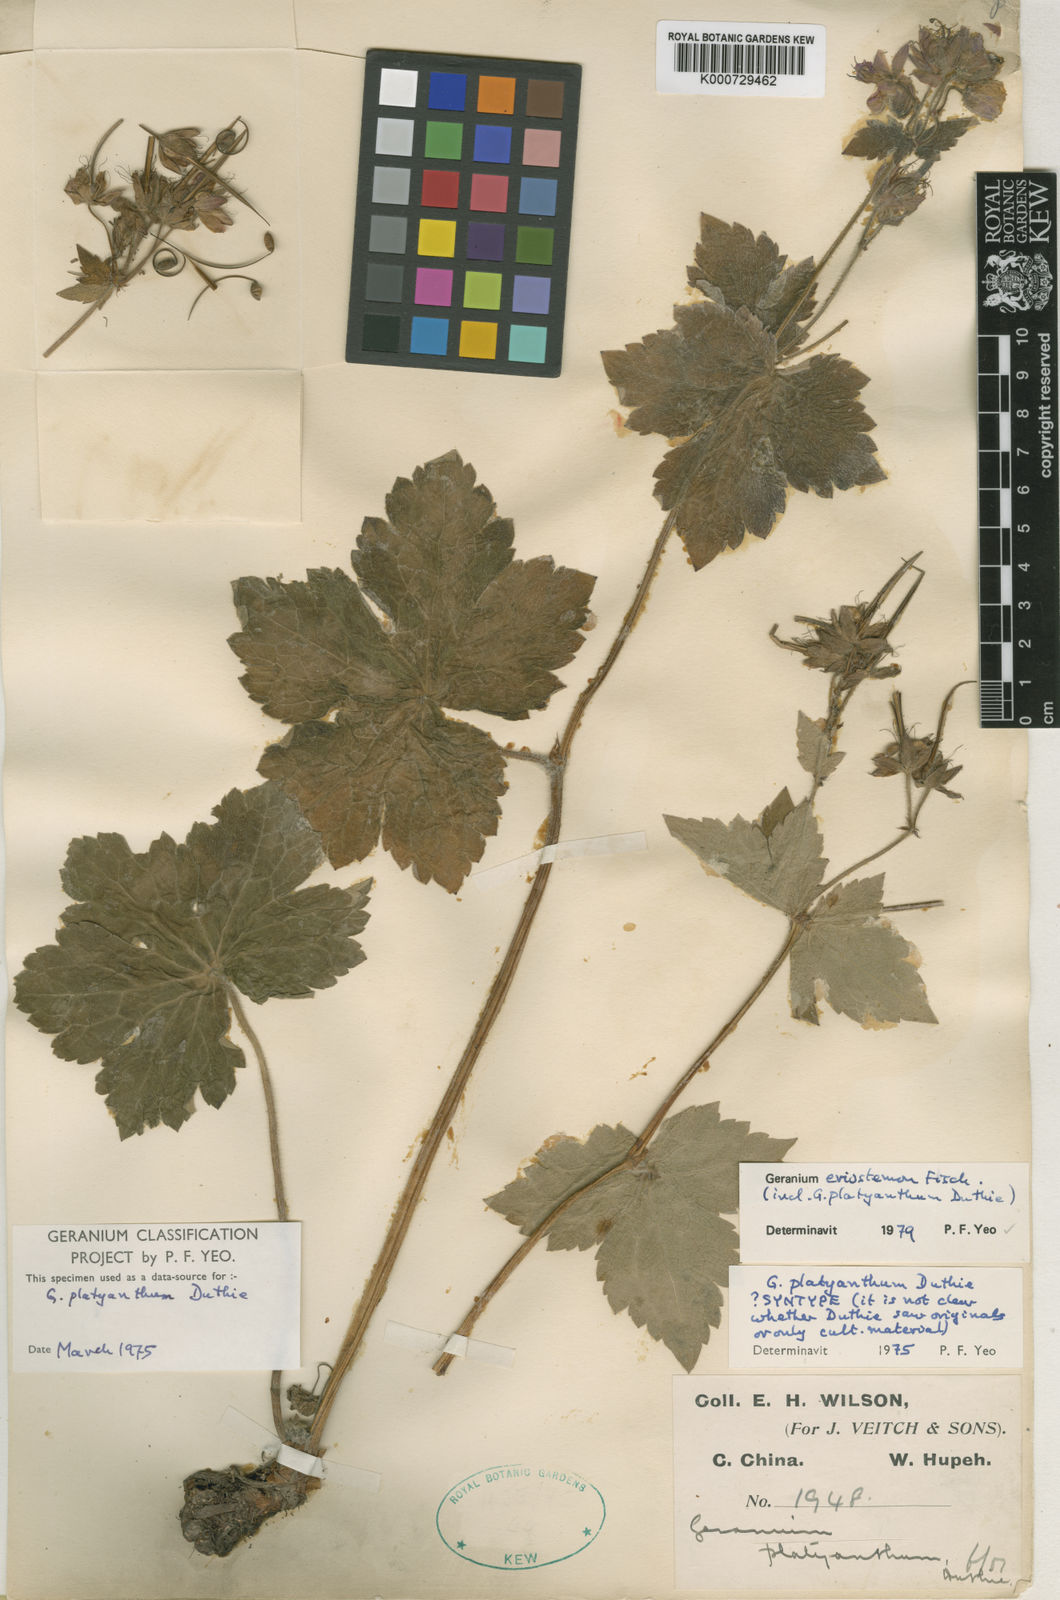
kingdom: Plantae
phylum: Tracheophyta
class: Magnoliopsida
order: Geraniales
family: Geraniaceae
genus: Geranium
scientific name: Geranium platyanthum
